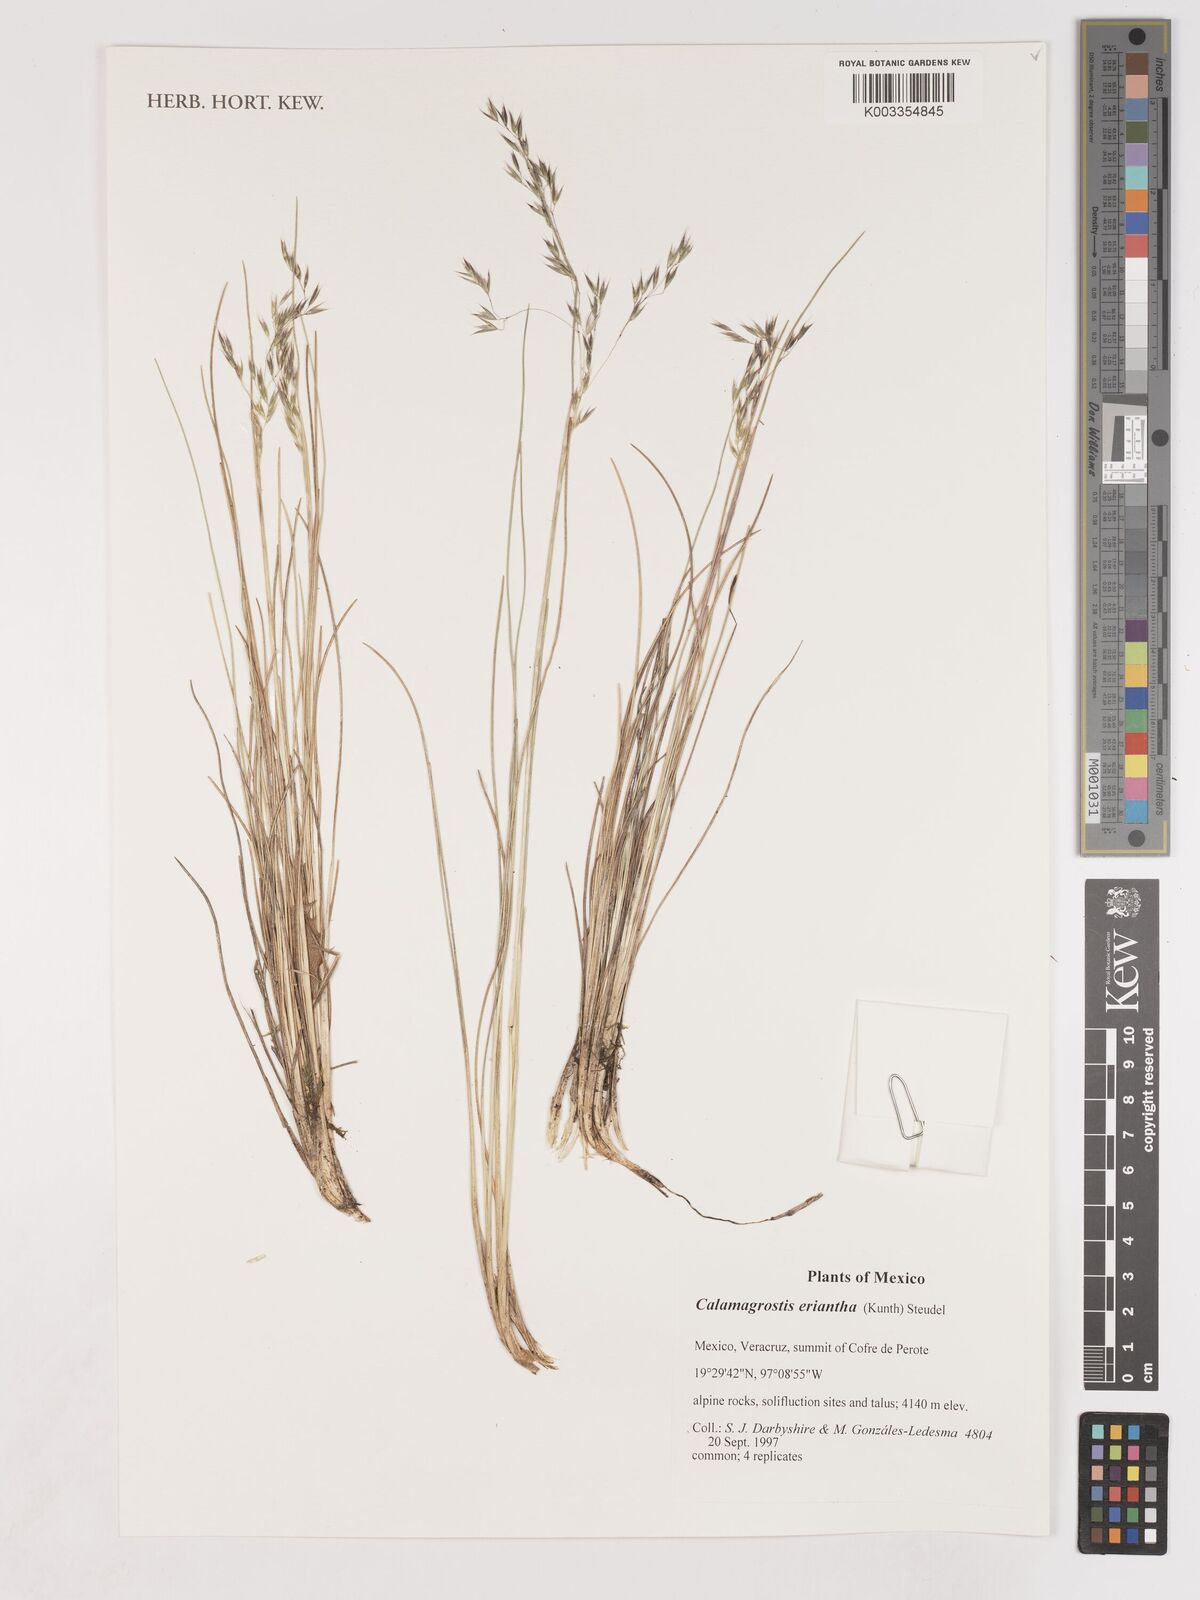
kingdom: Plantae
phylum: Tracheophyta
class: Liliopsida
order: Poales
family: Poaceae
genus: Peyritschia
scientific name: Peyritschia eriantha
